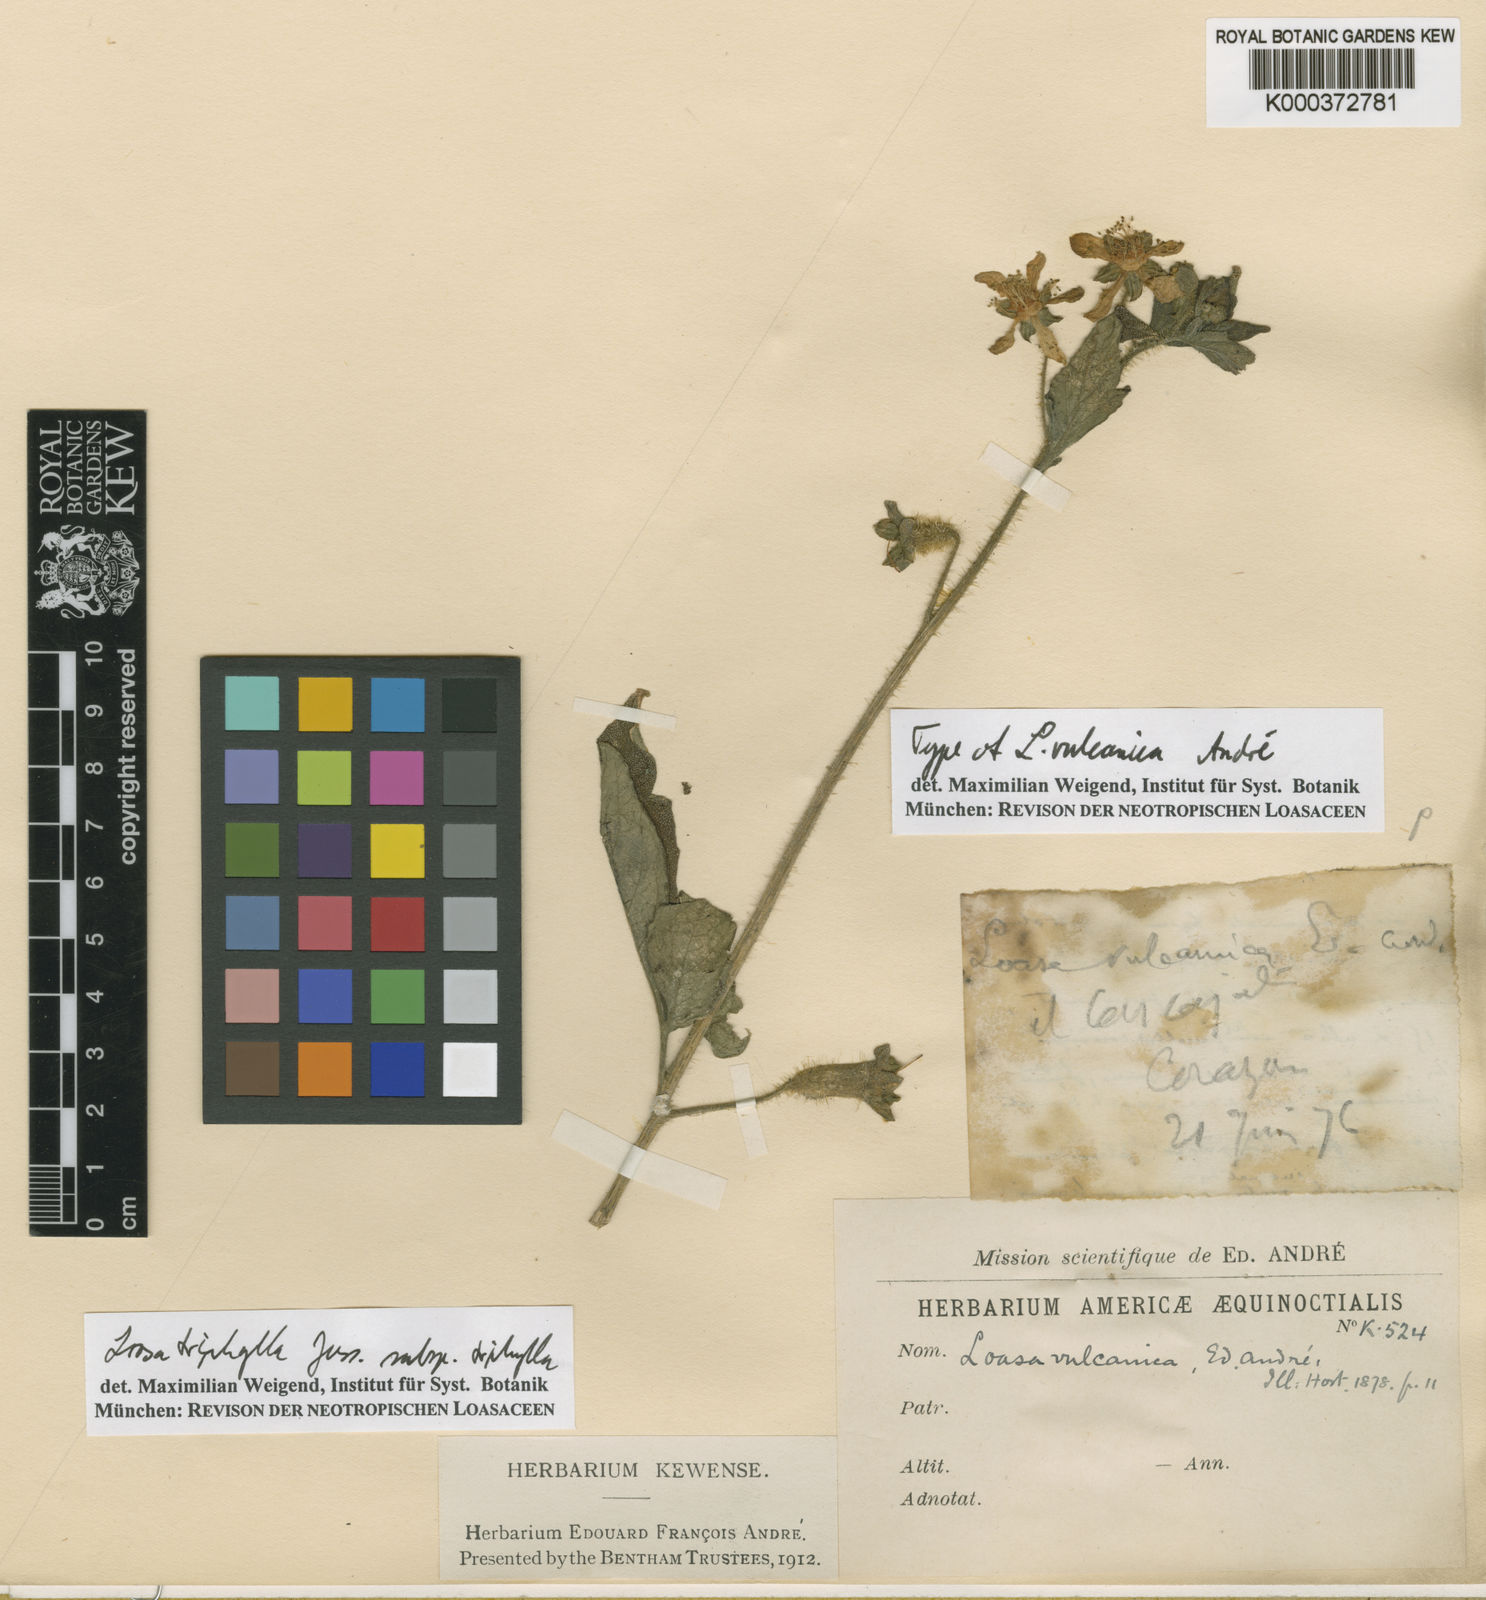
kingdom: Plantae
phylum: Tracheophyta
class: Magnoliopsida
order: Cornales
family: Loasaceae
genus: Nasa
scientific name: Nasa triphylla
